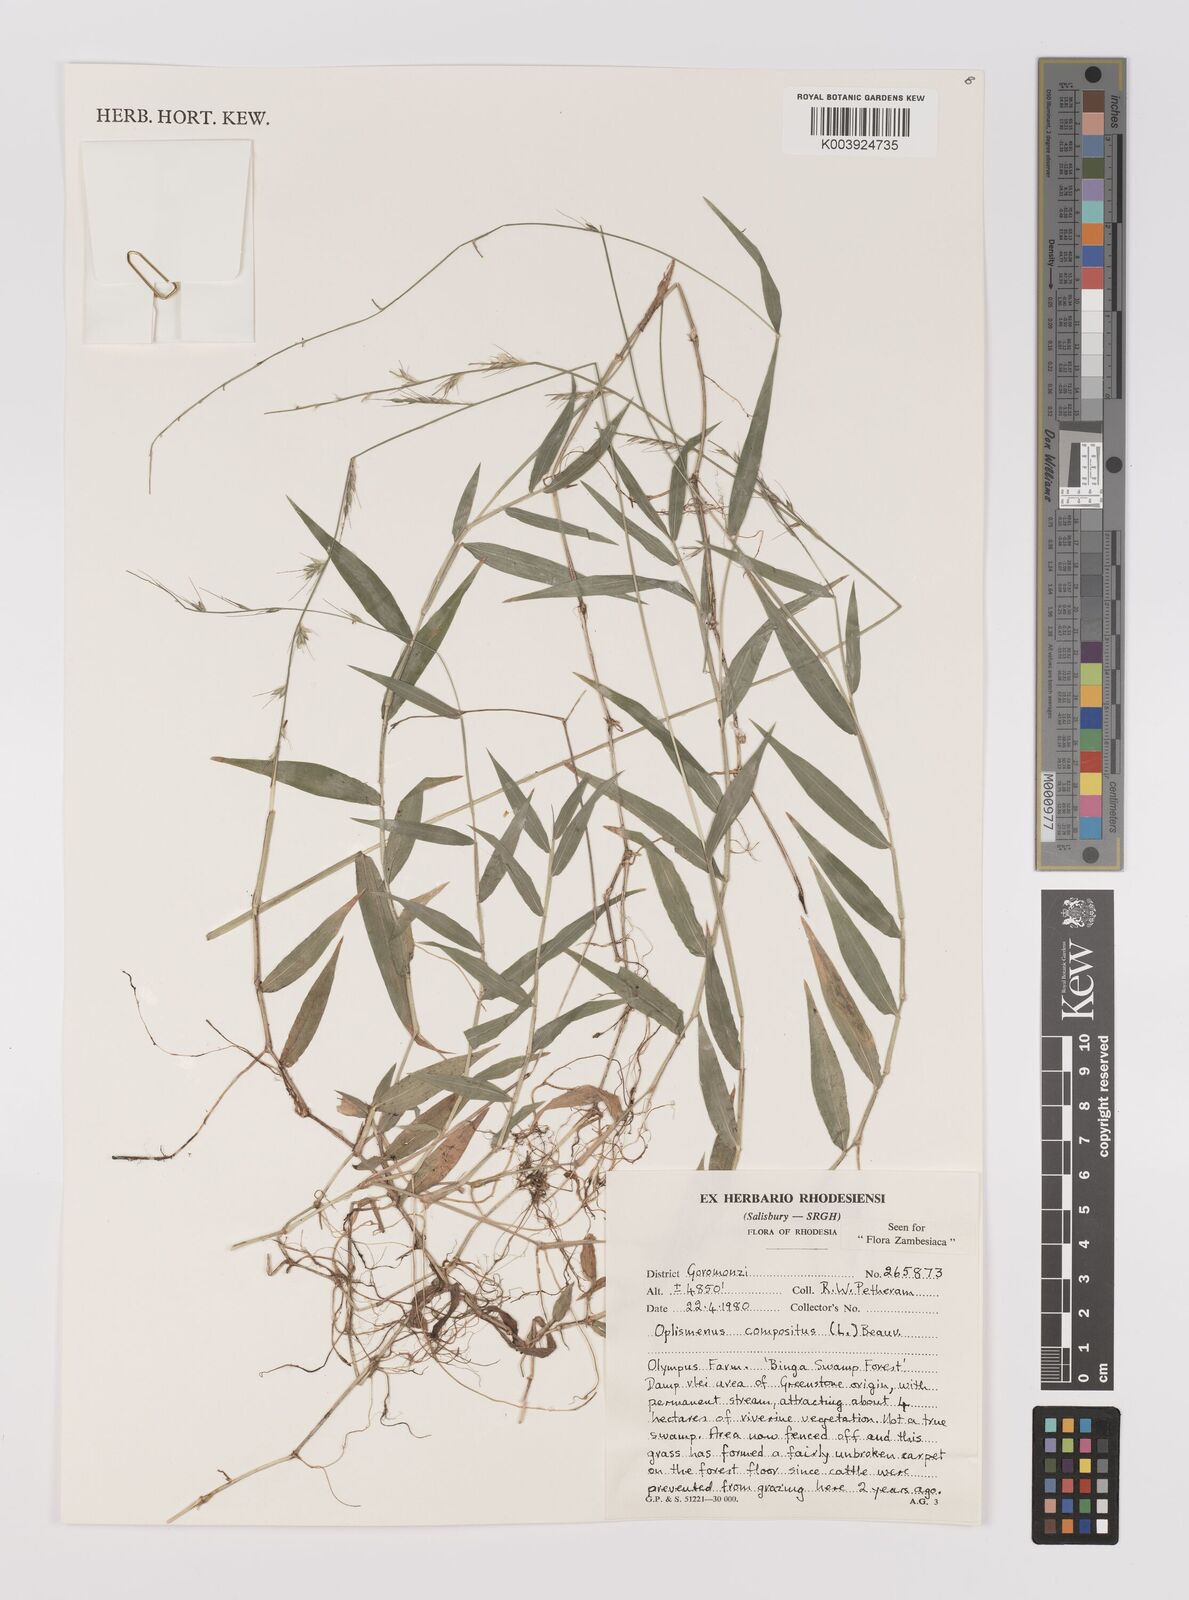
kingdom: Plantae
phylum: Tracheophyta
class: Liliopsida
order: Poales
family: Poaceae
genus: Oplismenus
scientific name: Oplismenus compositus
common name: Running mountain grass
